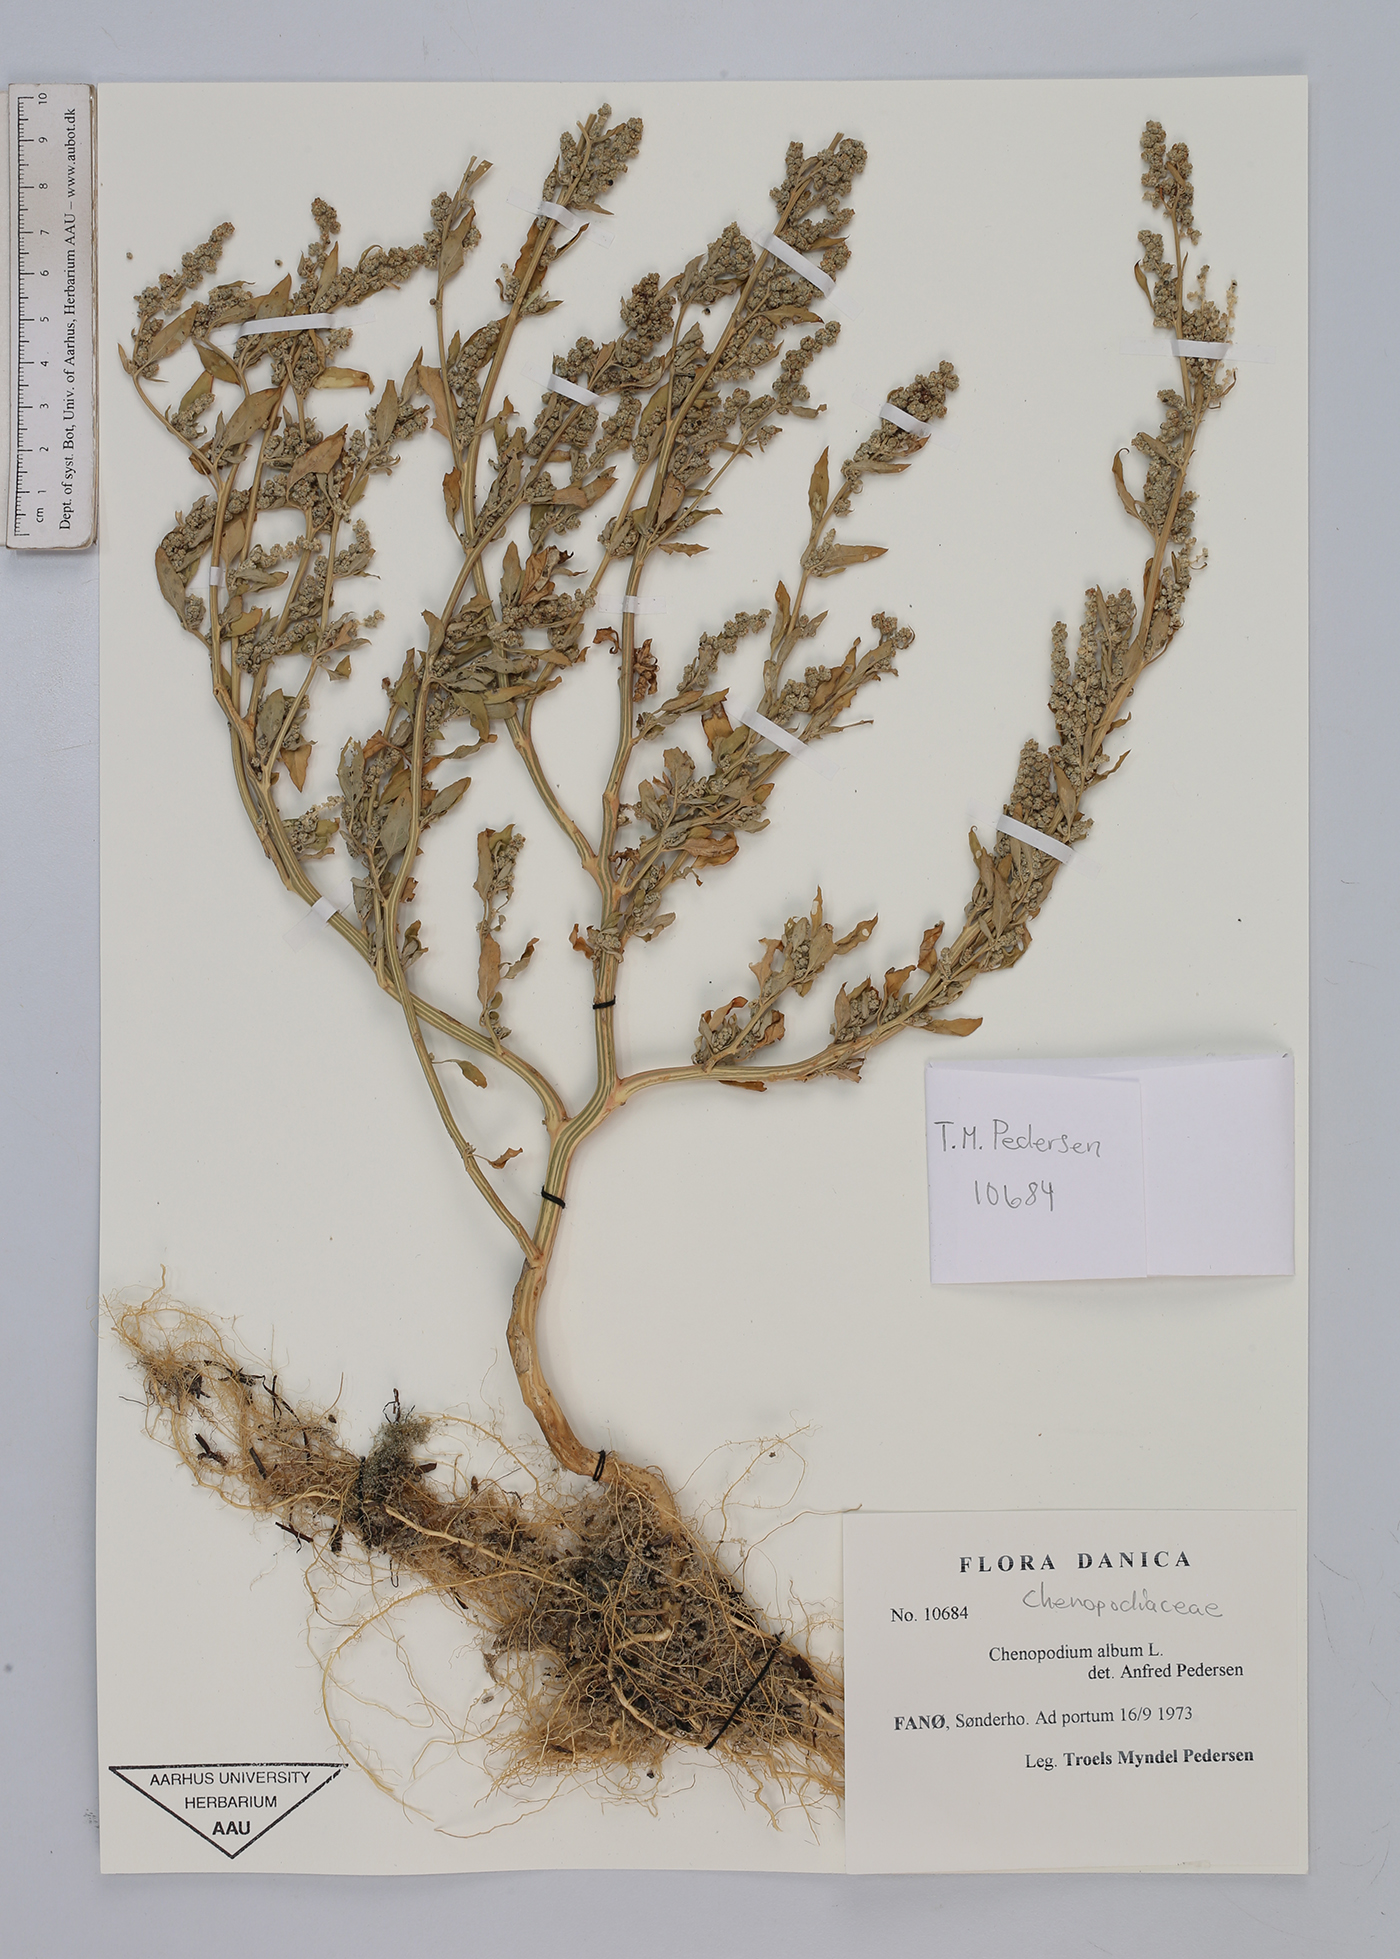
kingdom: Plantae
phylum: Tracheophyta
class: Magnoliopsida
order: Caryophyllales
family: Amaranthaceae
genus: Chenopodium
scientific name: Chenopodium album
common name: Fat-hen
